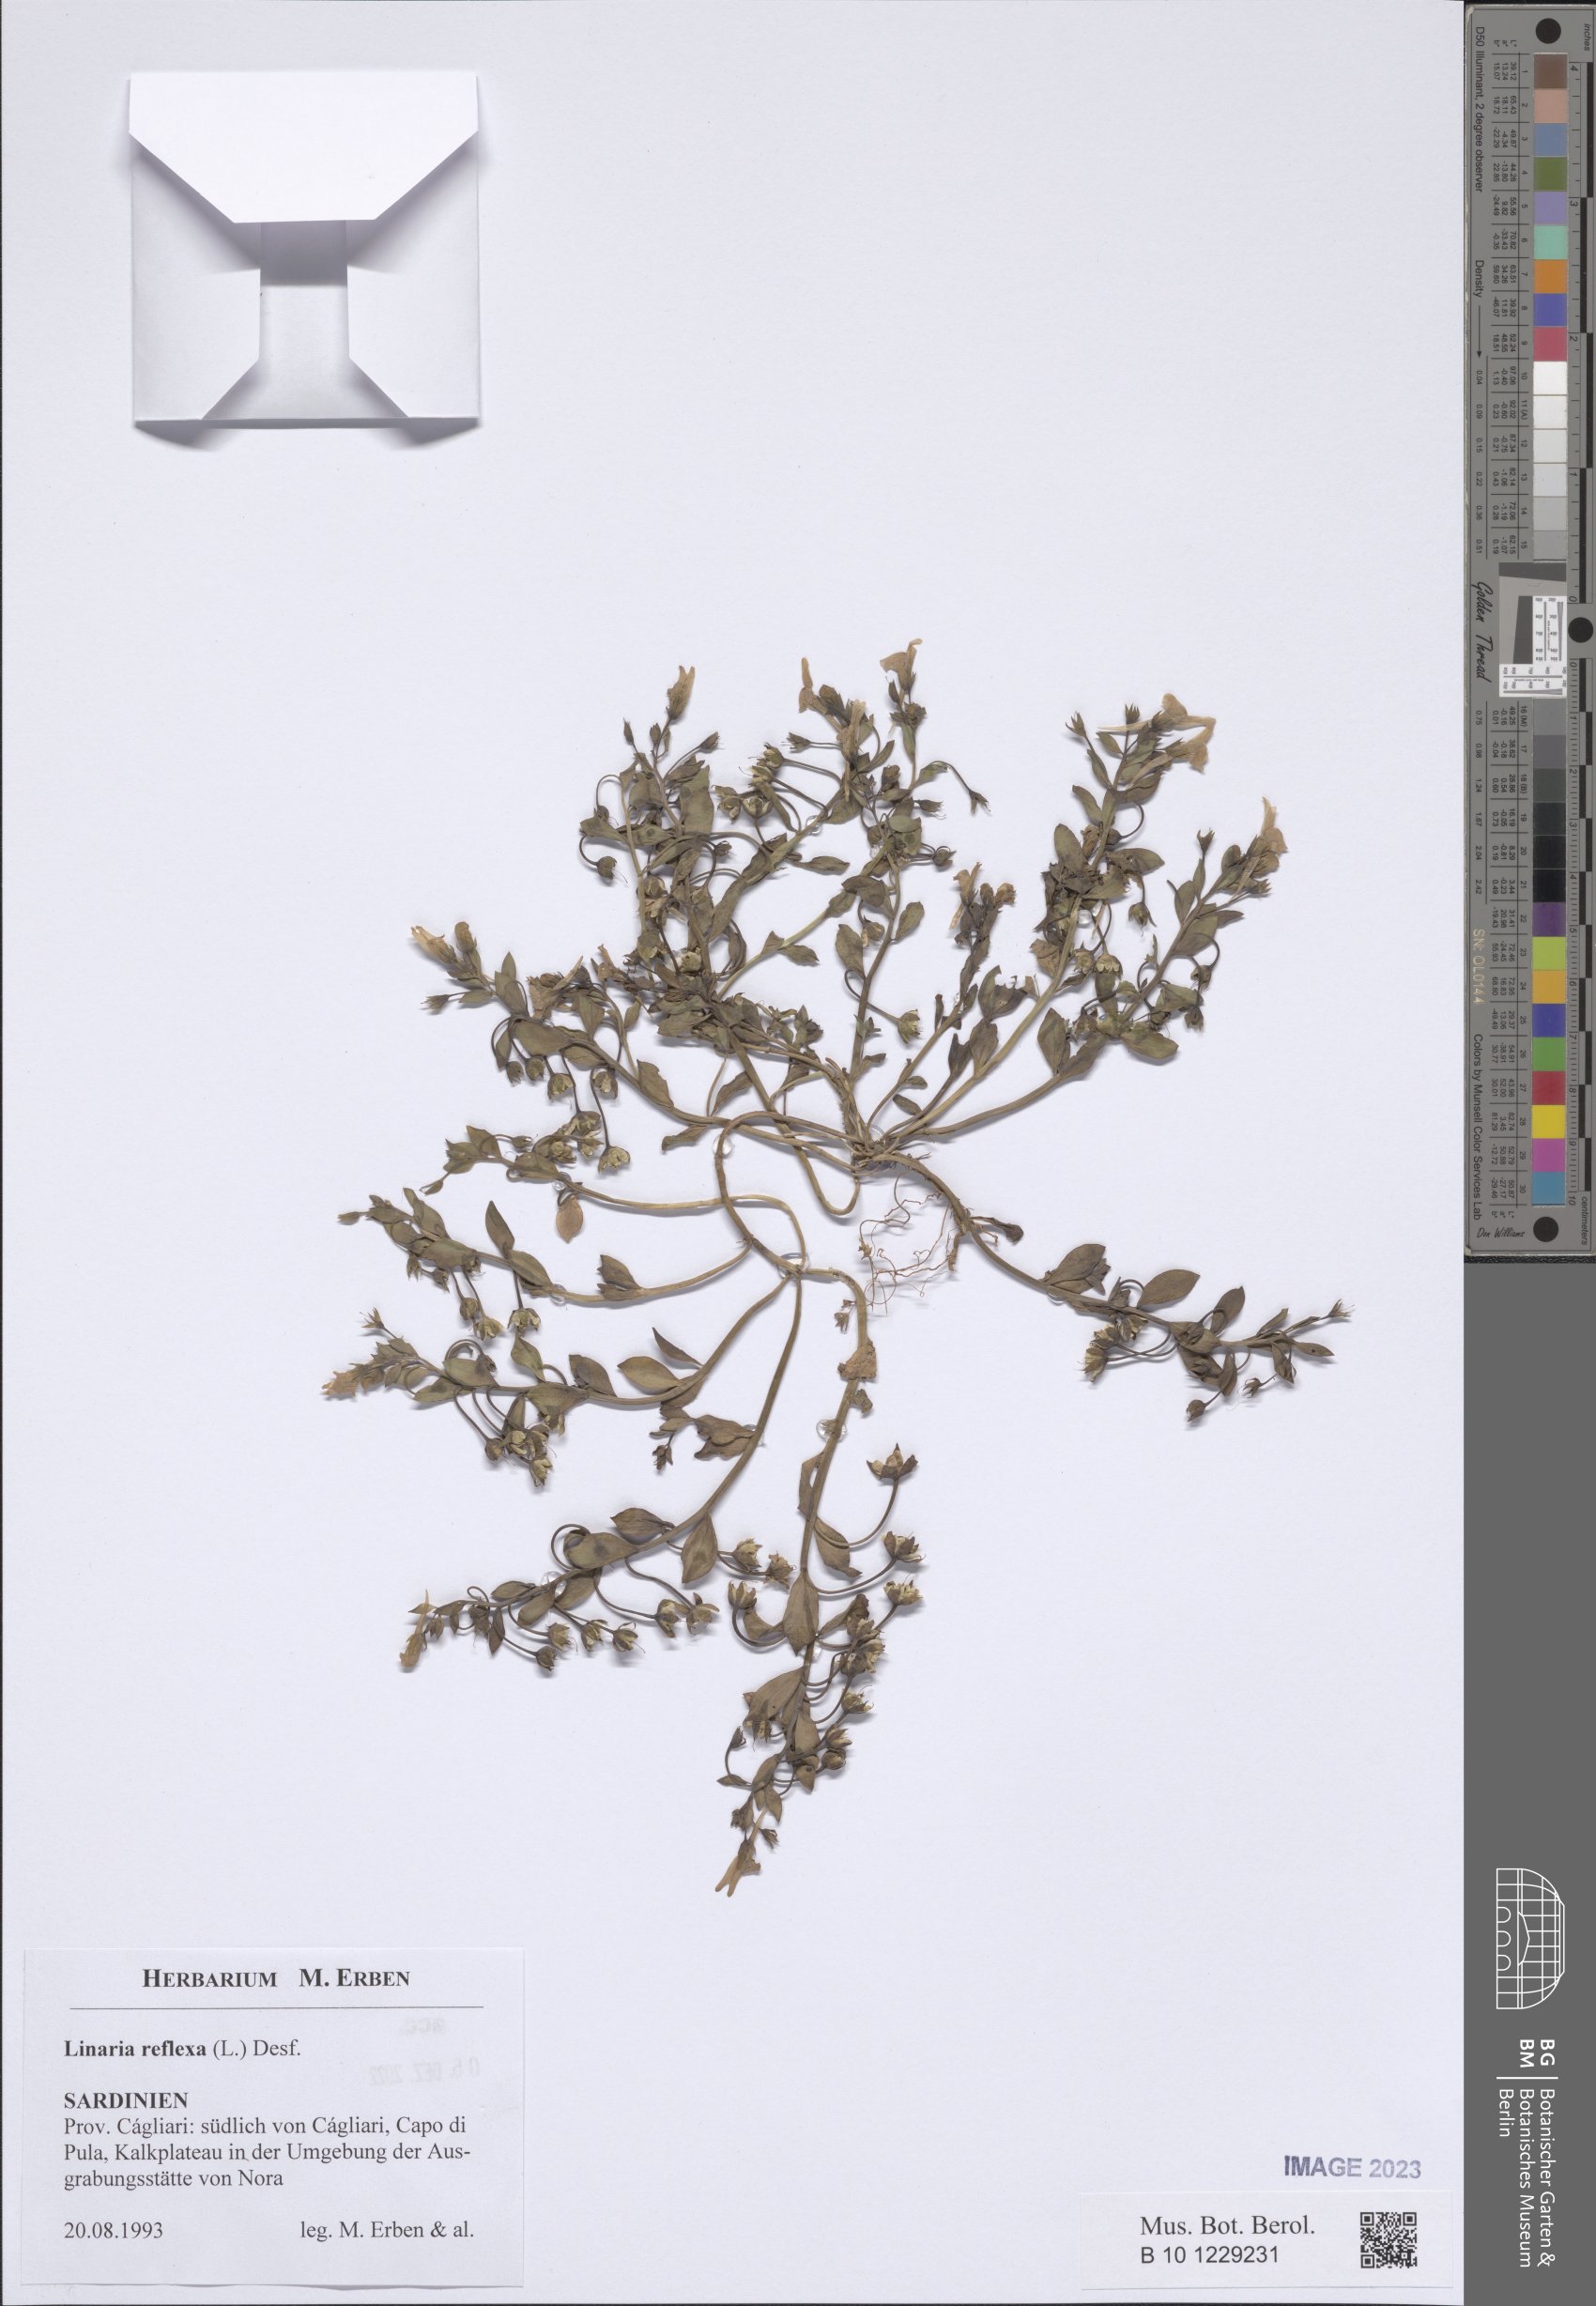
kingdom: Plantae
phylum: Tracheophyta
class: Magnoliopsida
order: Lamiales
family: Plantaginaceae
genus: Linaria
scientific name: Linaria reflexa
